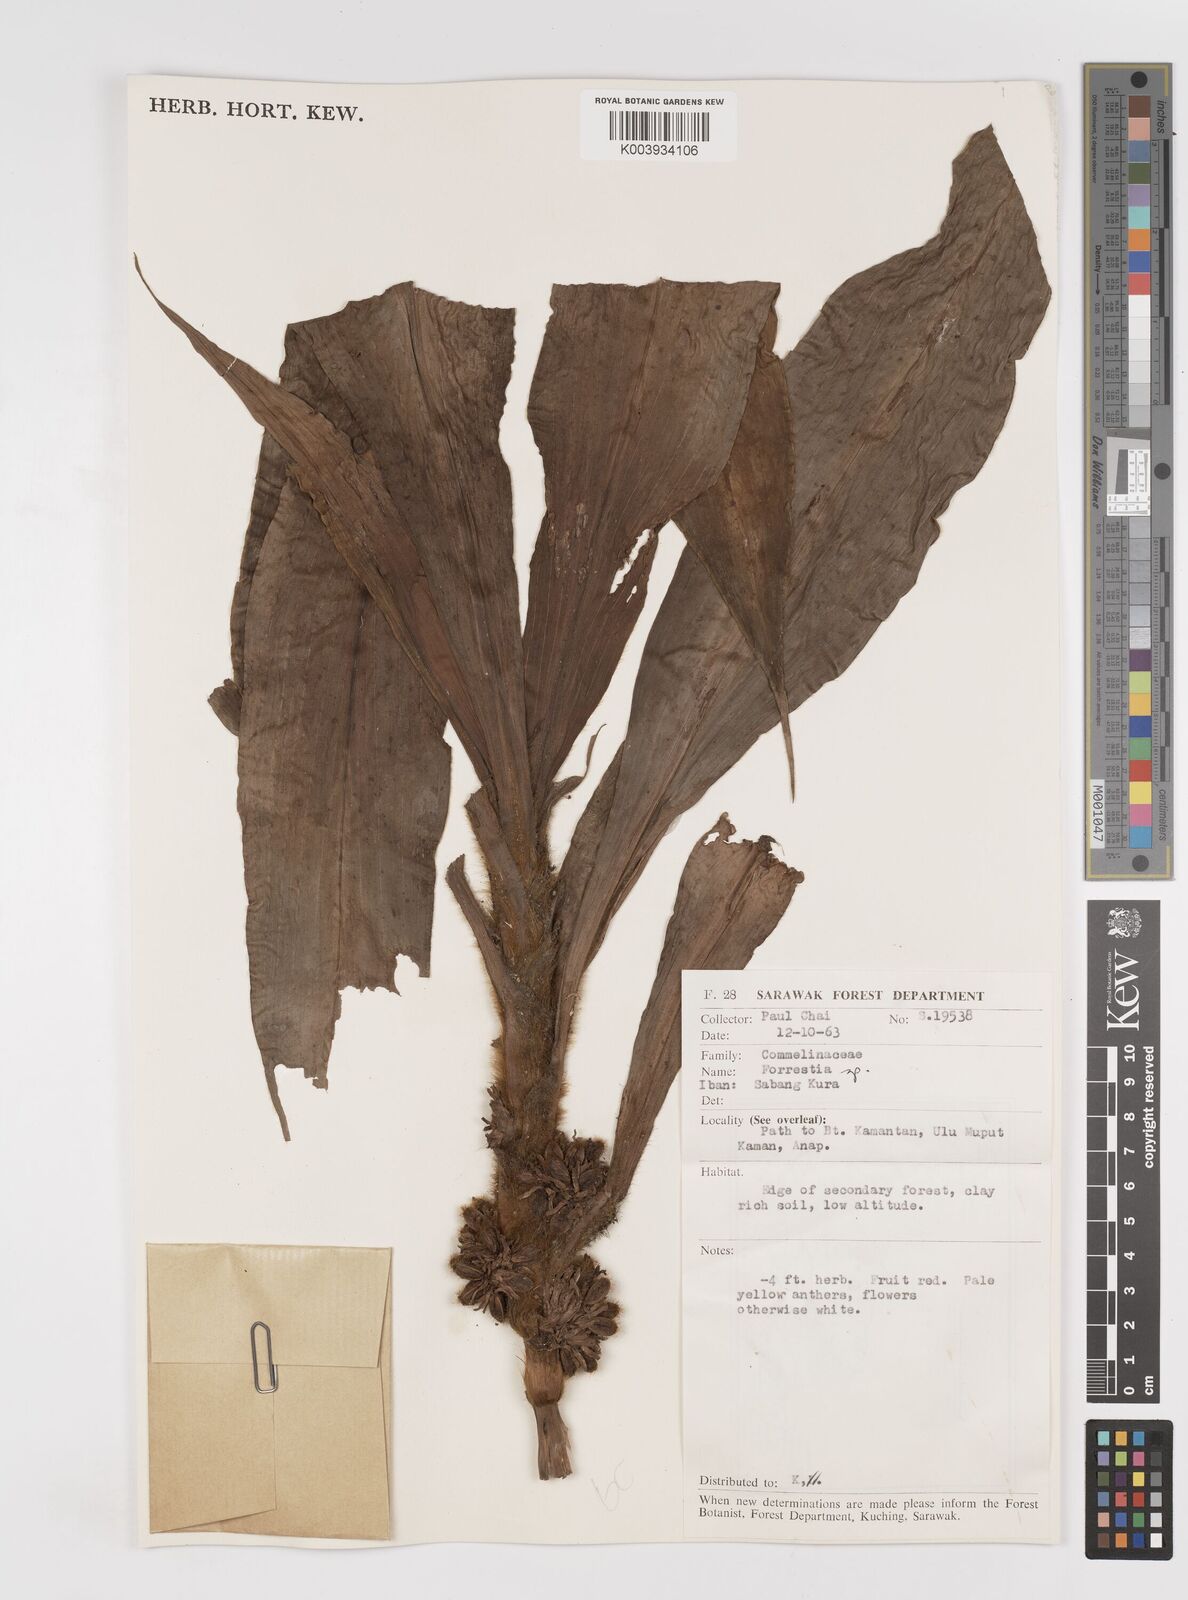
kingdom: Plantae
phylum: Tracheophyta
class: Liliopsida
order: Commelinales
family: Commelinaceae
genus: Amischotolype
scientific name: Amischotolype
